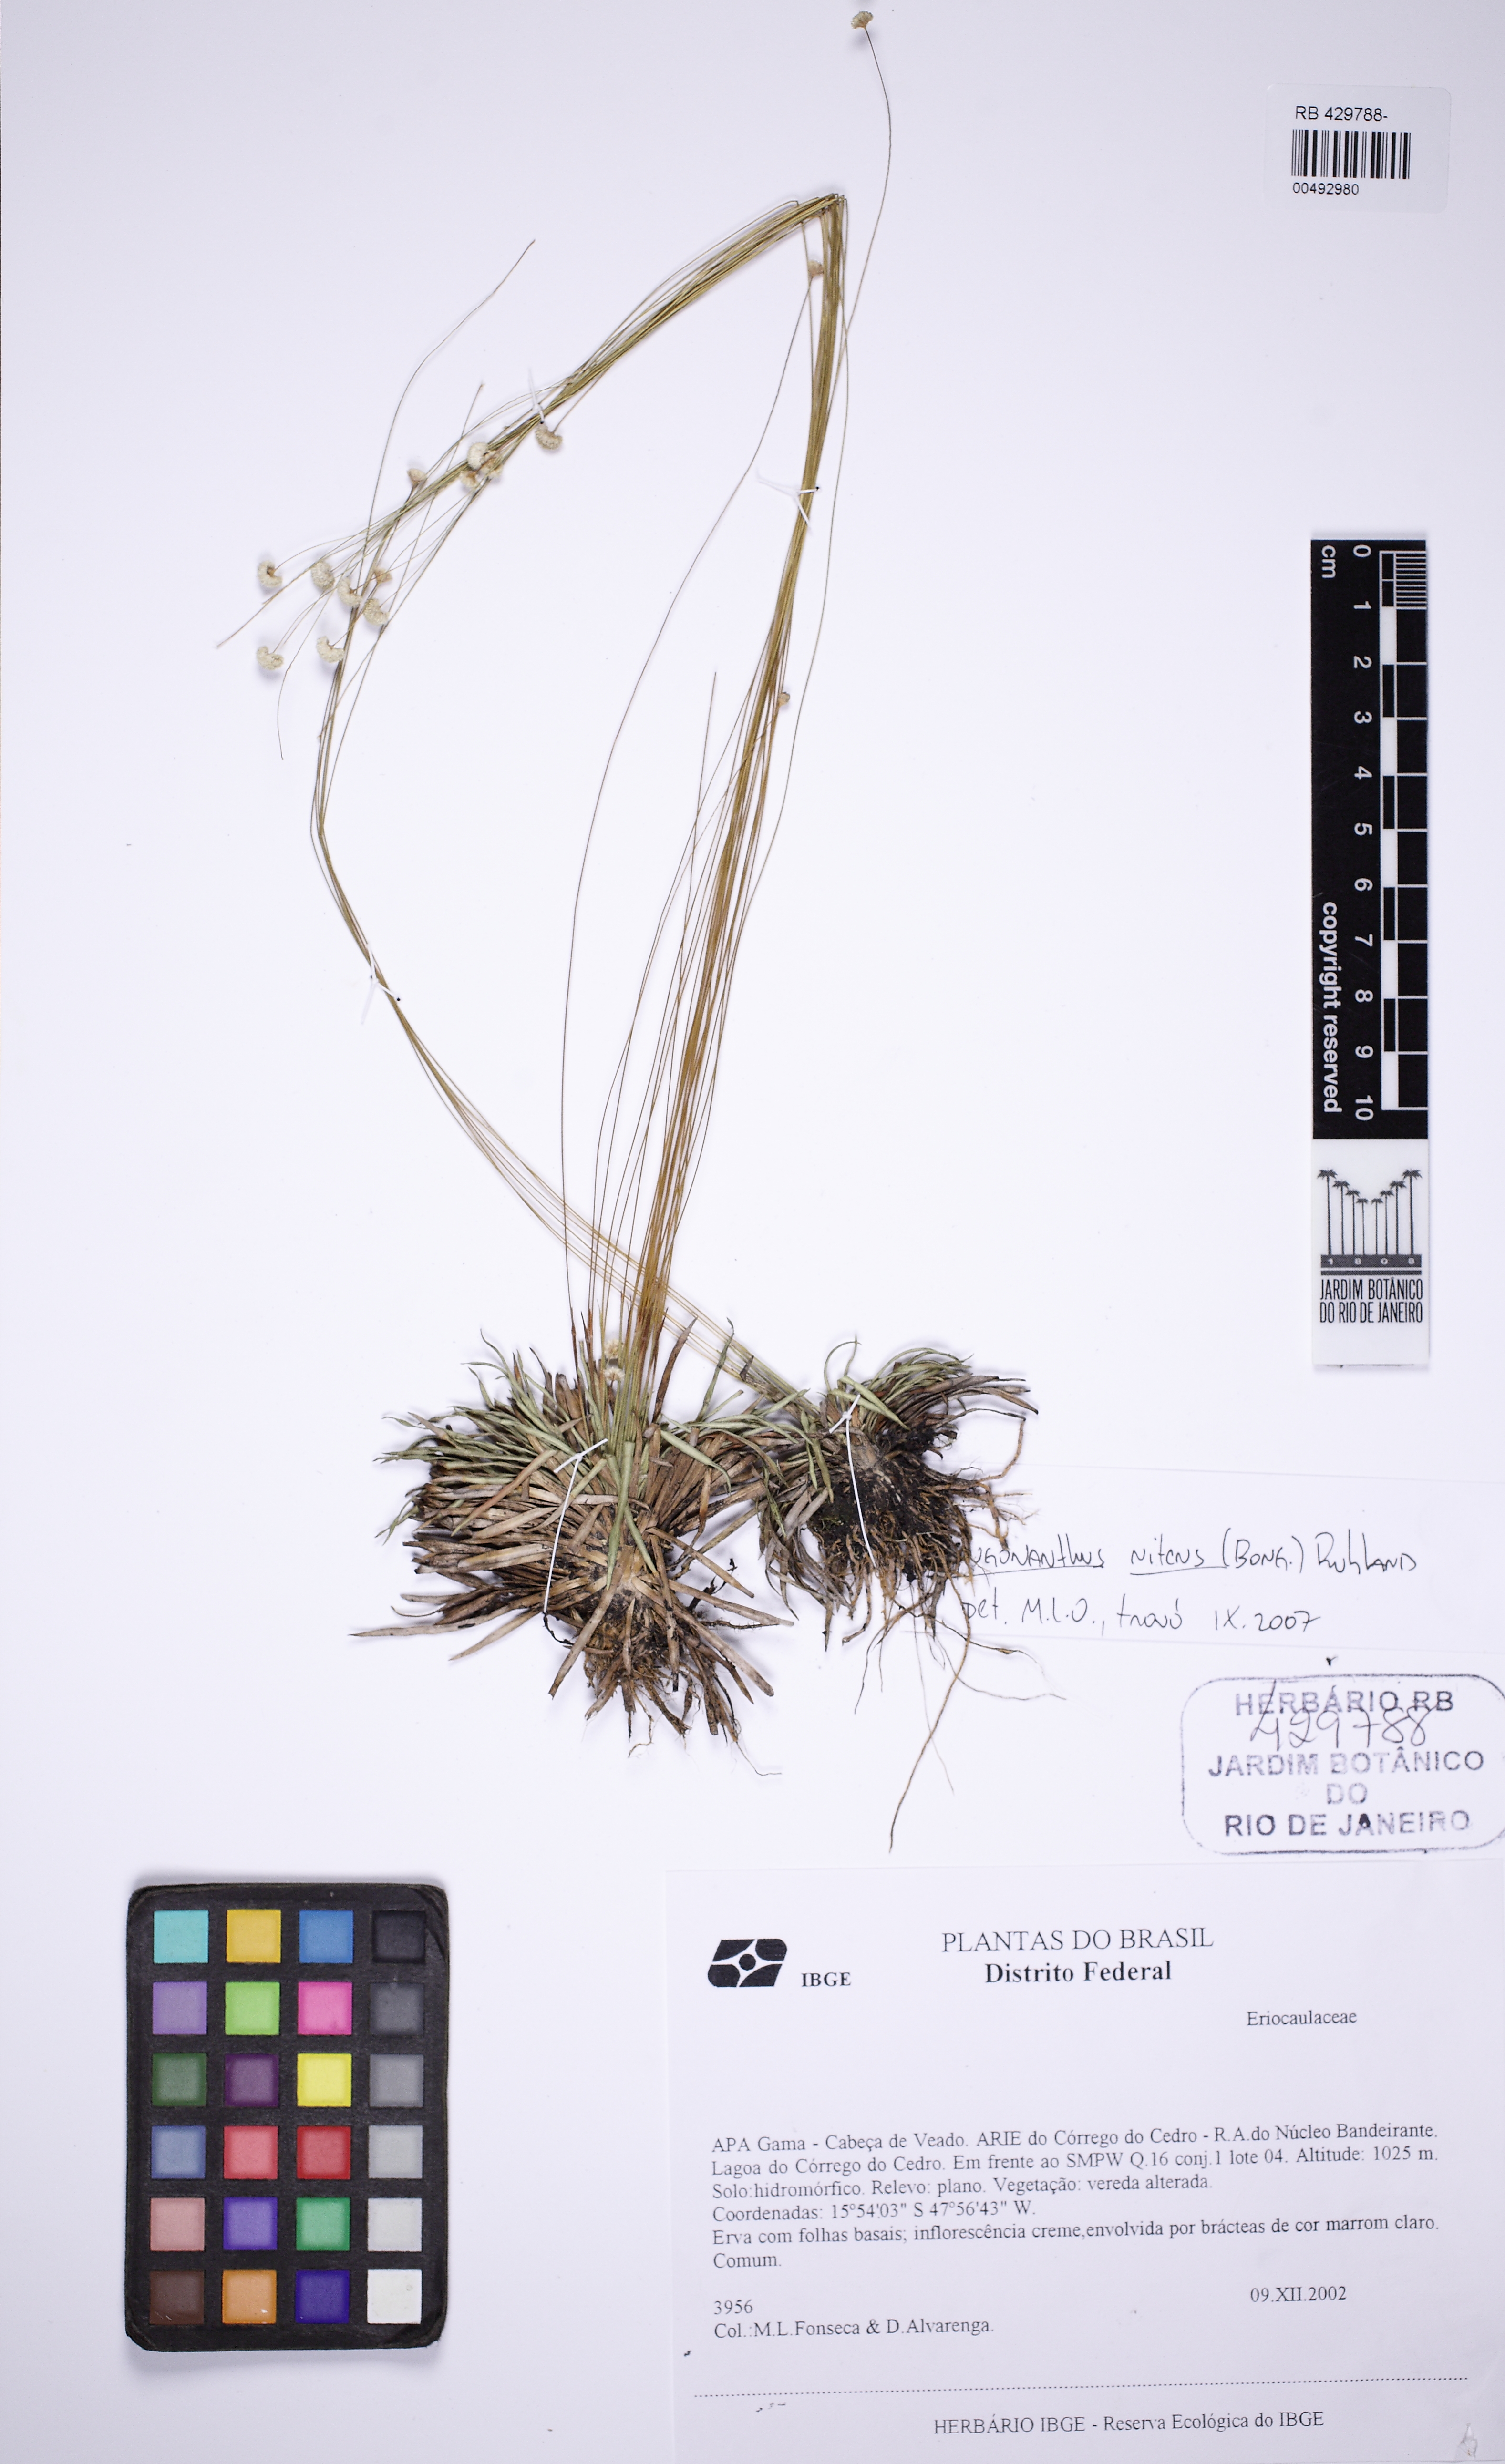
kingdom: Plantae
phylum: Tracheophyta
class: Liliopsida
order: Poales
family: Eriocaulaceae
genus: Syngonanthus
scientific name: Syngonanthus nitens
